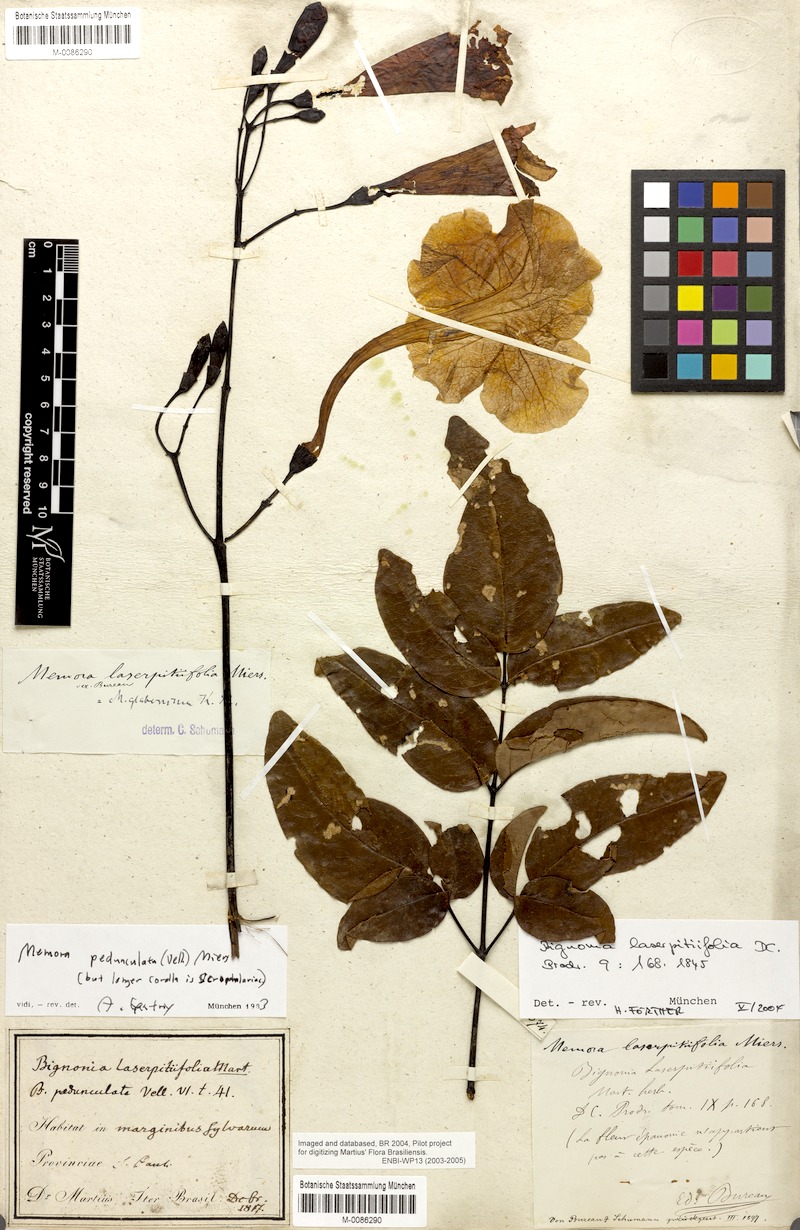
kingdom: Plantae
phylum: Tracheophyta
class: Magnoliopsida
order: Lamiales
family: Bignoniaceae
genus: Adenocalymma
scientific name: Adenocalymma pedunculatum
